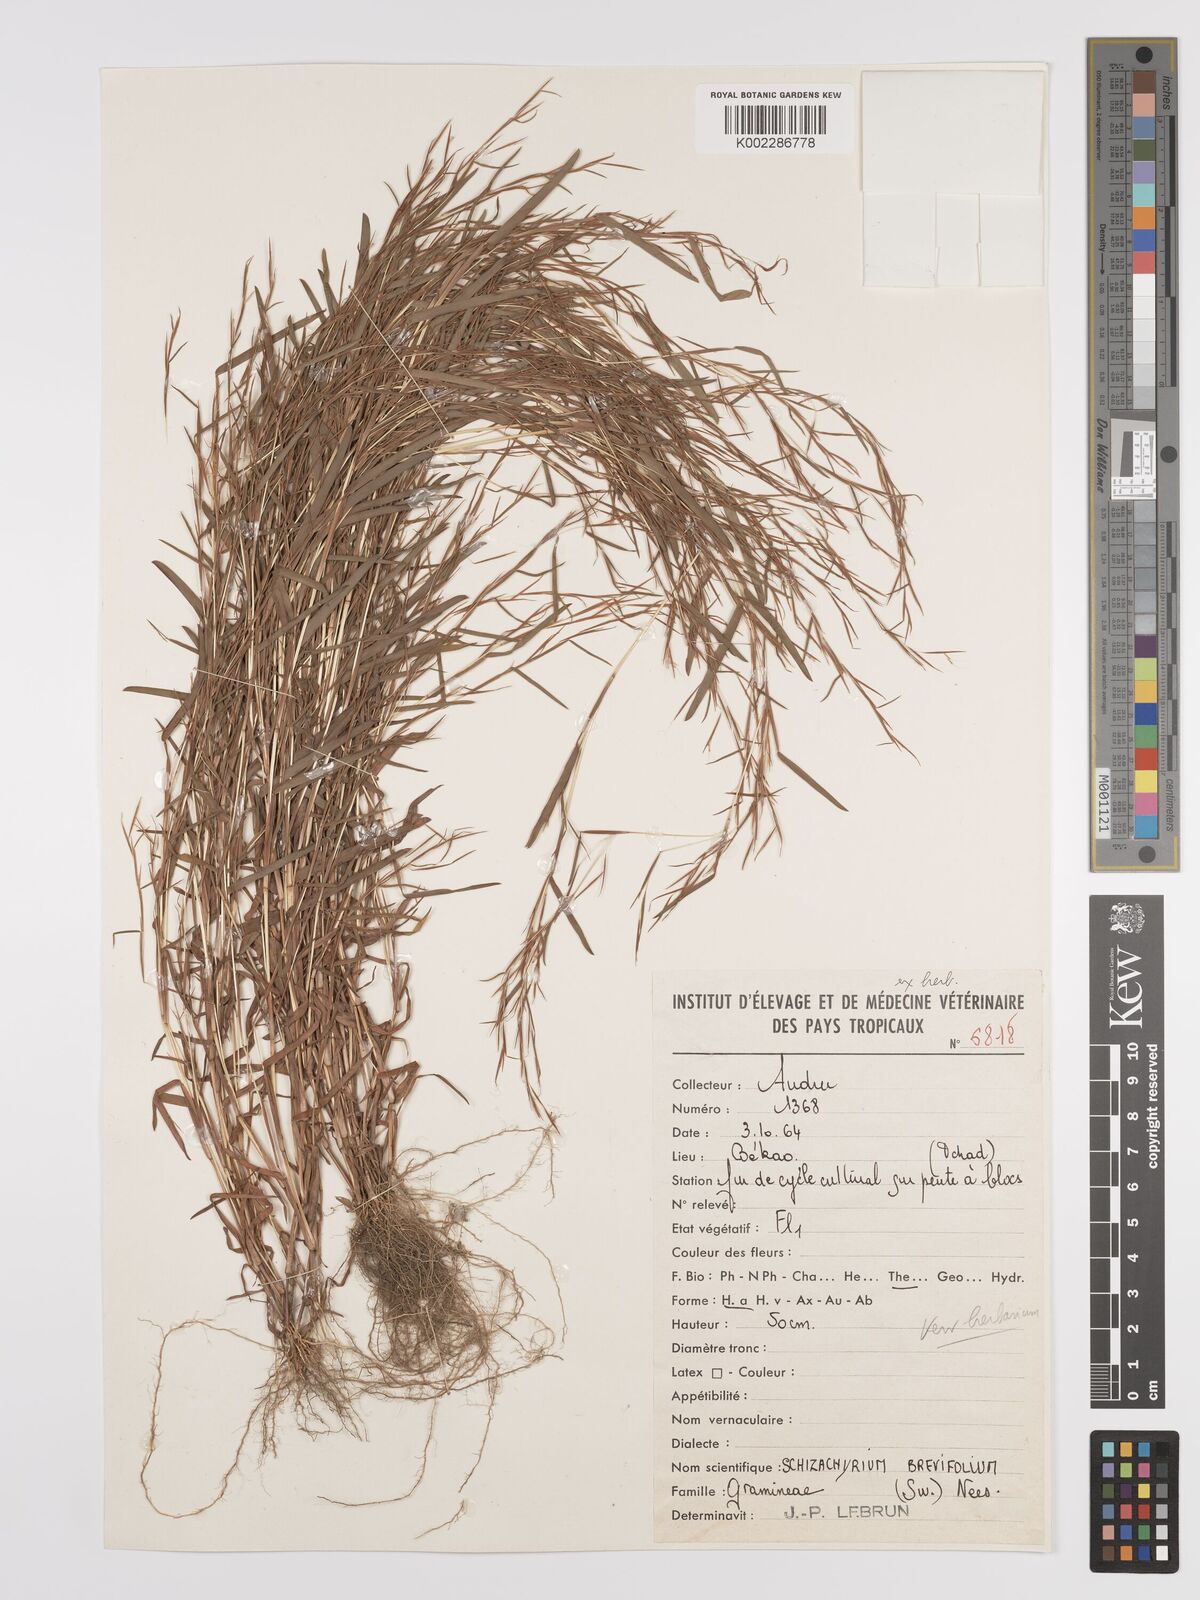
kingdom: Plantae
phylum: Tracheophyta
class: Liliopsida
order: Poales
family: Poaceae
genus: Schizachyrium
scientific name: Schizachyrium brevifolium
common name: Serillo dulce
